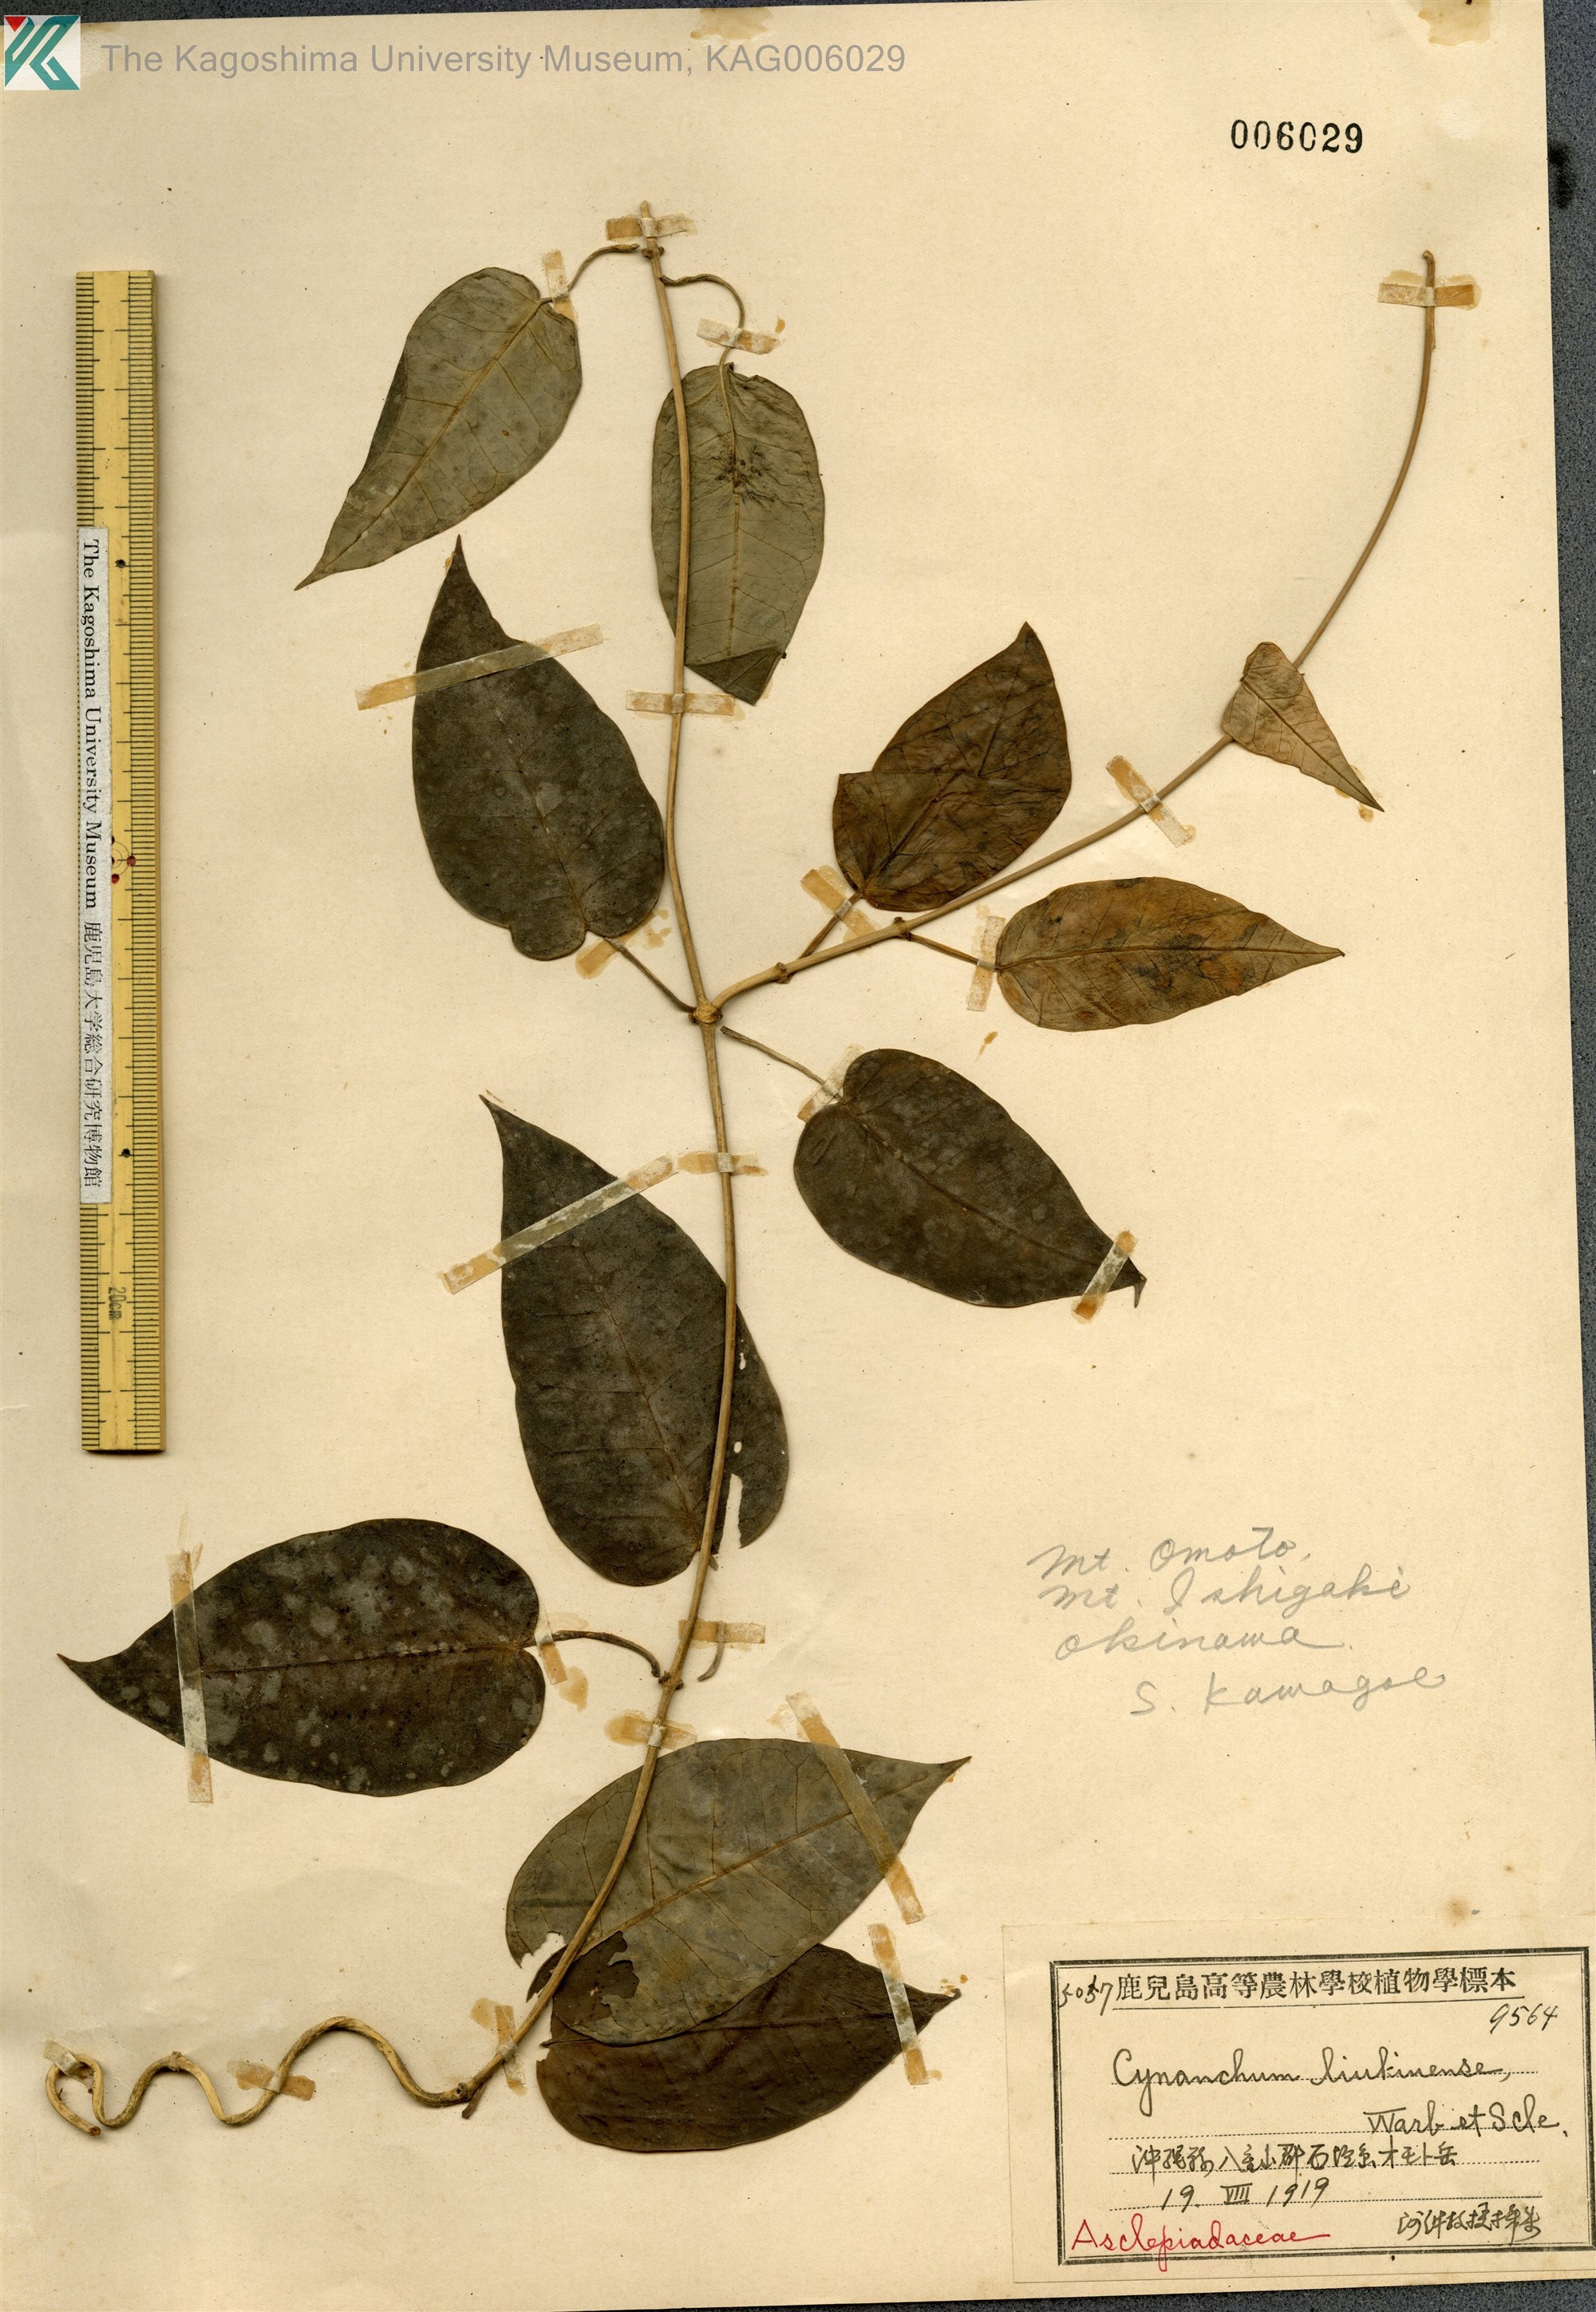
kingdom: Plantae
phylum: Tracheophyta
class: Magnoliopsida
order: Gentianales
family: Apocynaceae
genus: Cynanchum
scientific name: Cynanchum liukiuense
